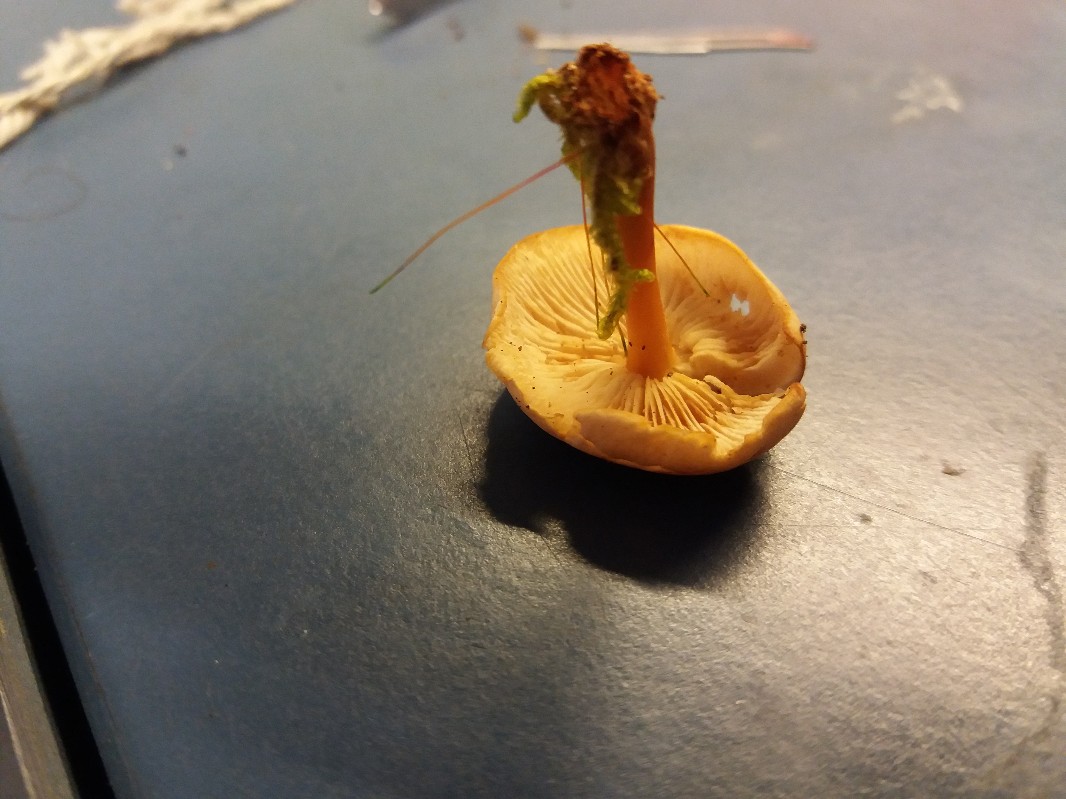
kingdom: Fungi
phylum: Basidiomycota
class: Agaricomycetes
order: Agaricales
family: Omphalotaceae
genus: Gymnopus
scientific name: Gymnopus dryophilus
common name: løv-fladhat
